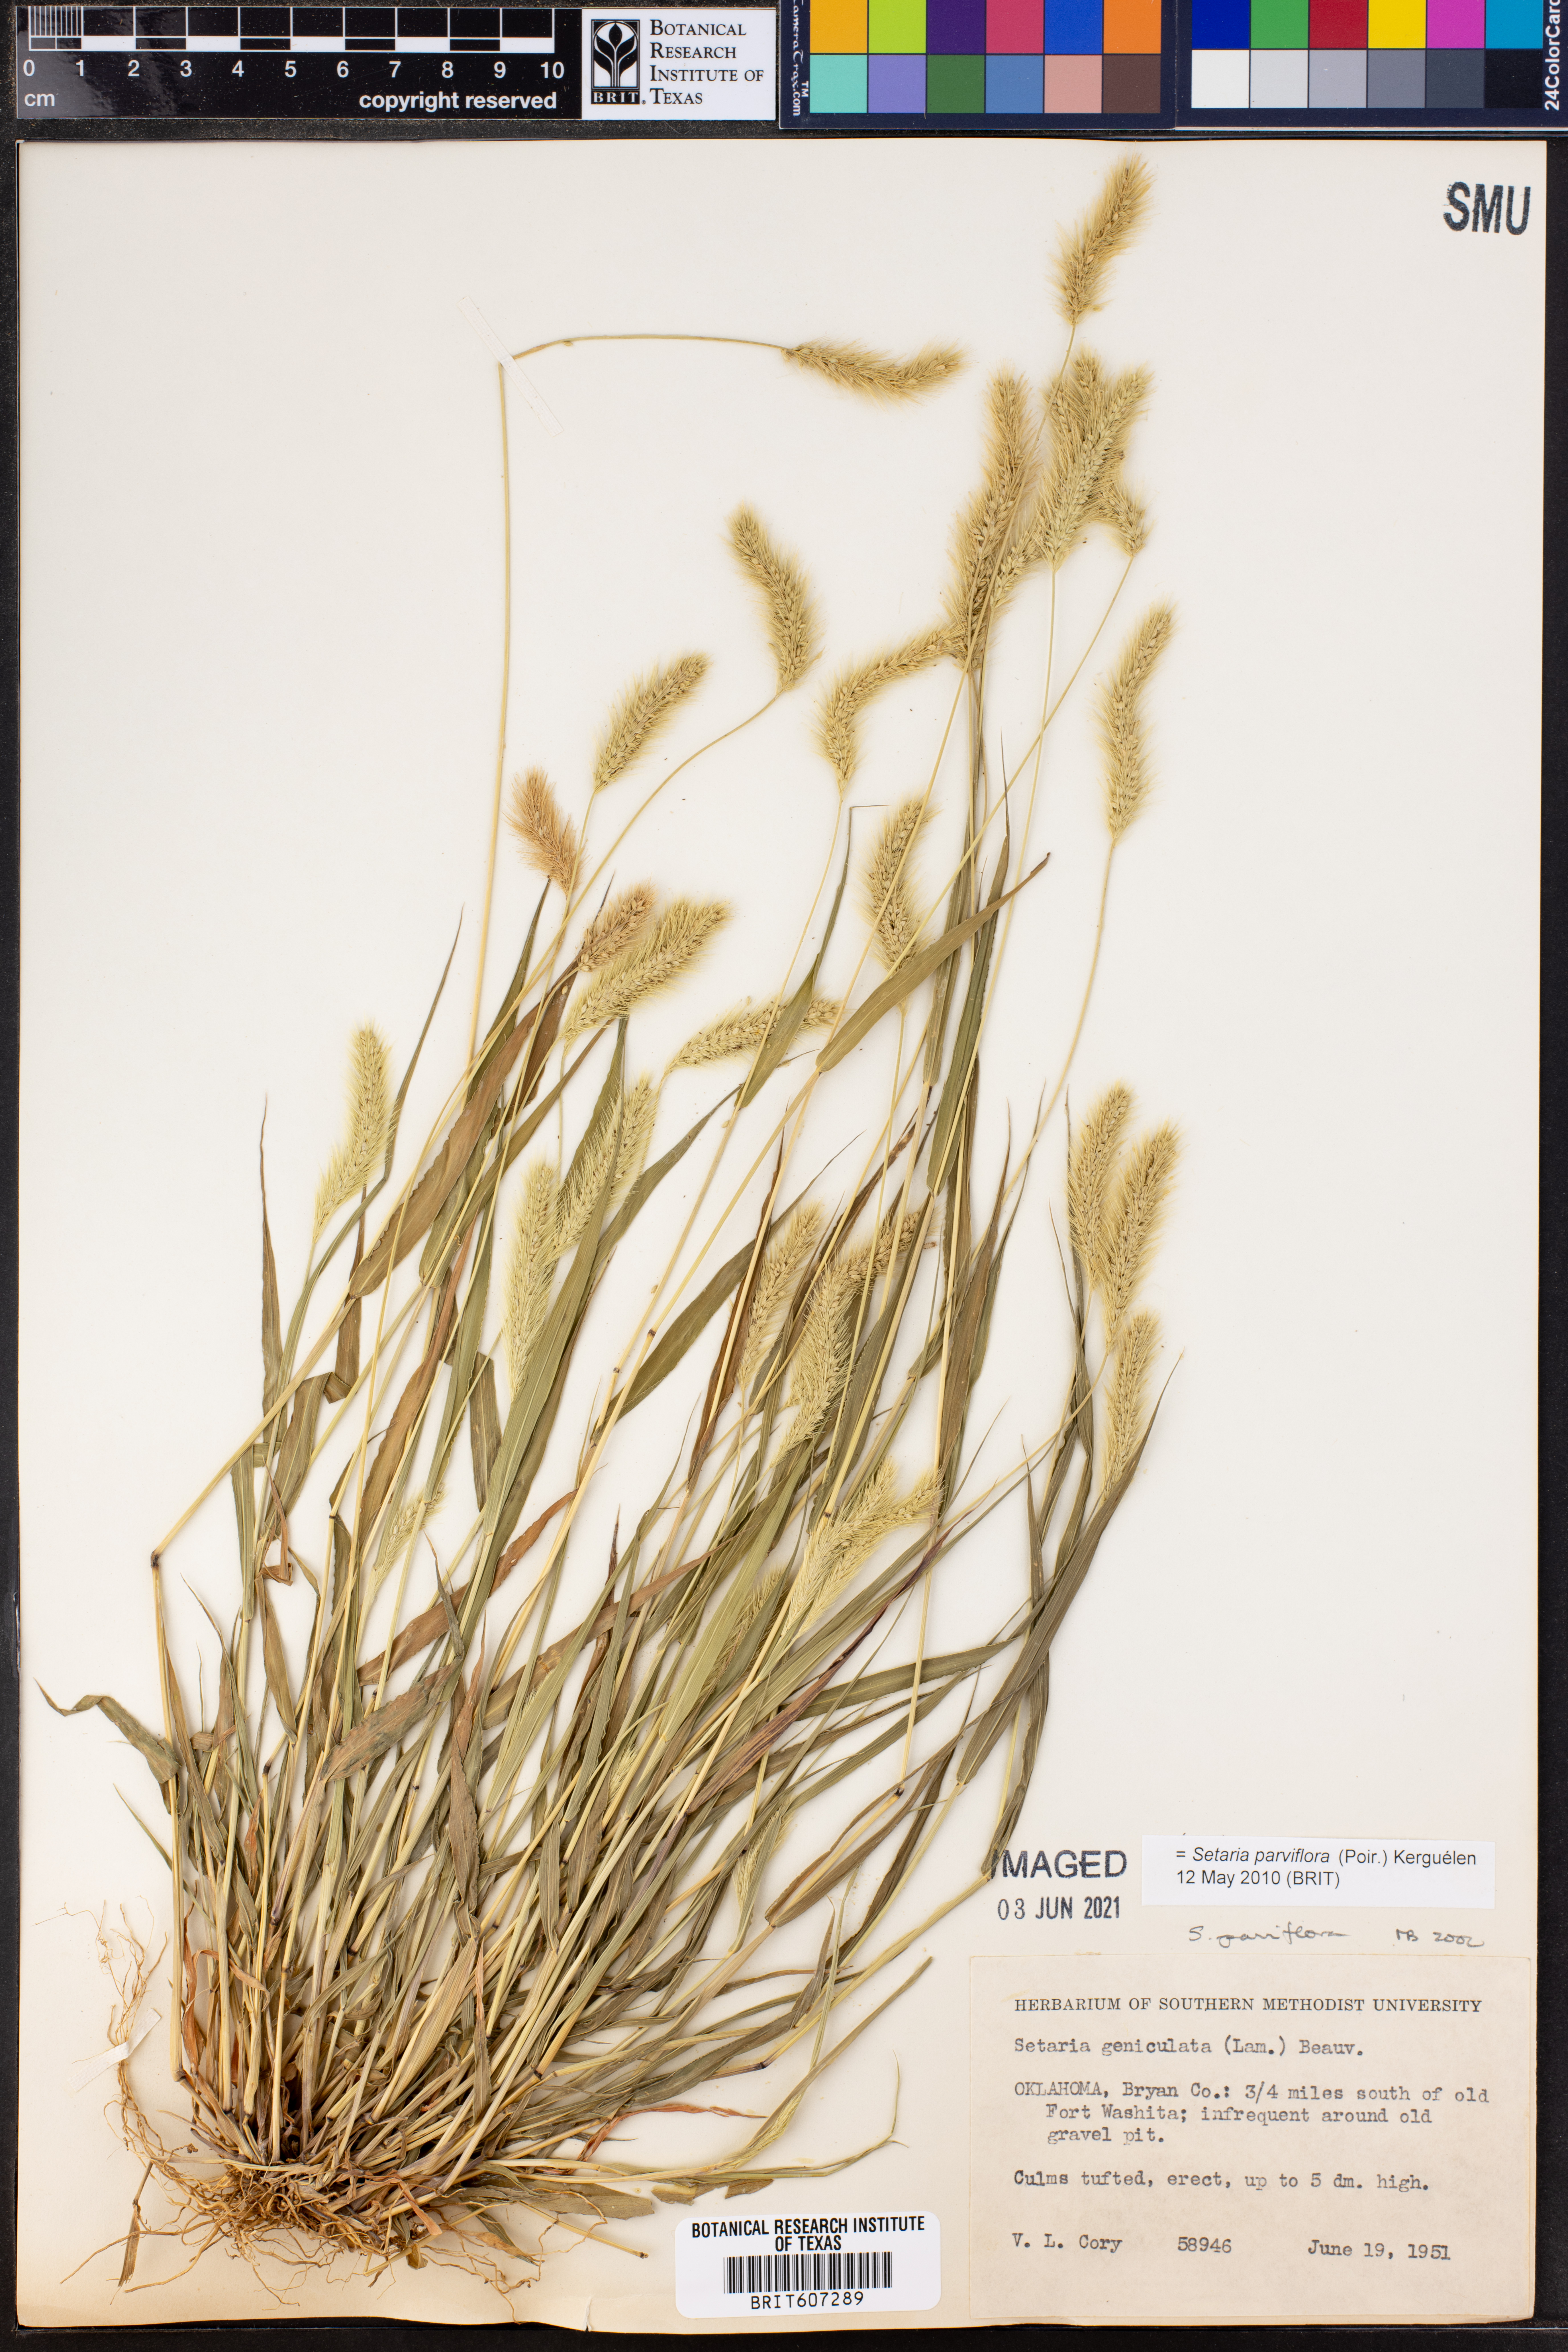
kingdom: Plantae
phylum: Tracheophyta
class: Liliopsida
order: Poales
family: Poaceae
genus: Setaria
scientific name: Setaria parviflora
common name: Knotroot bristle-grass
